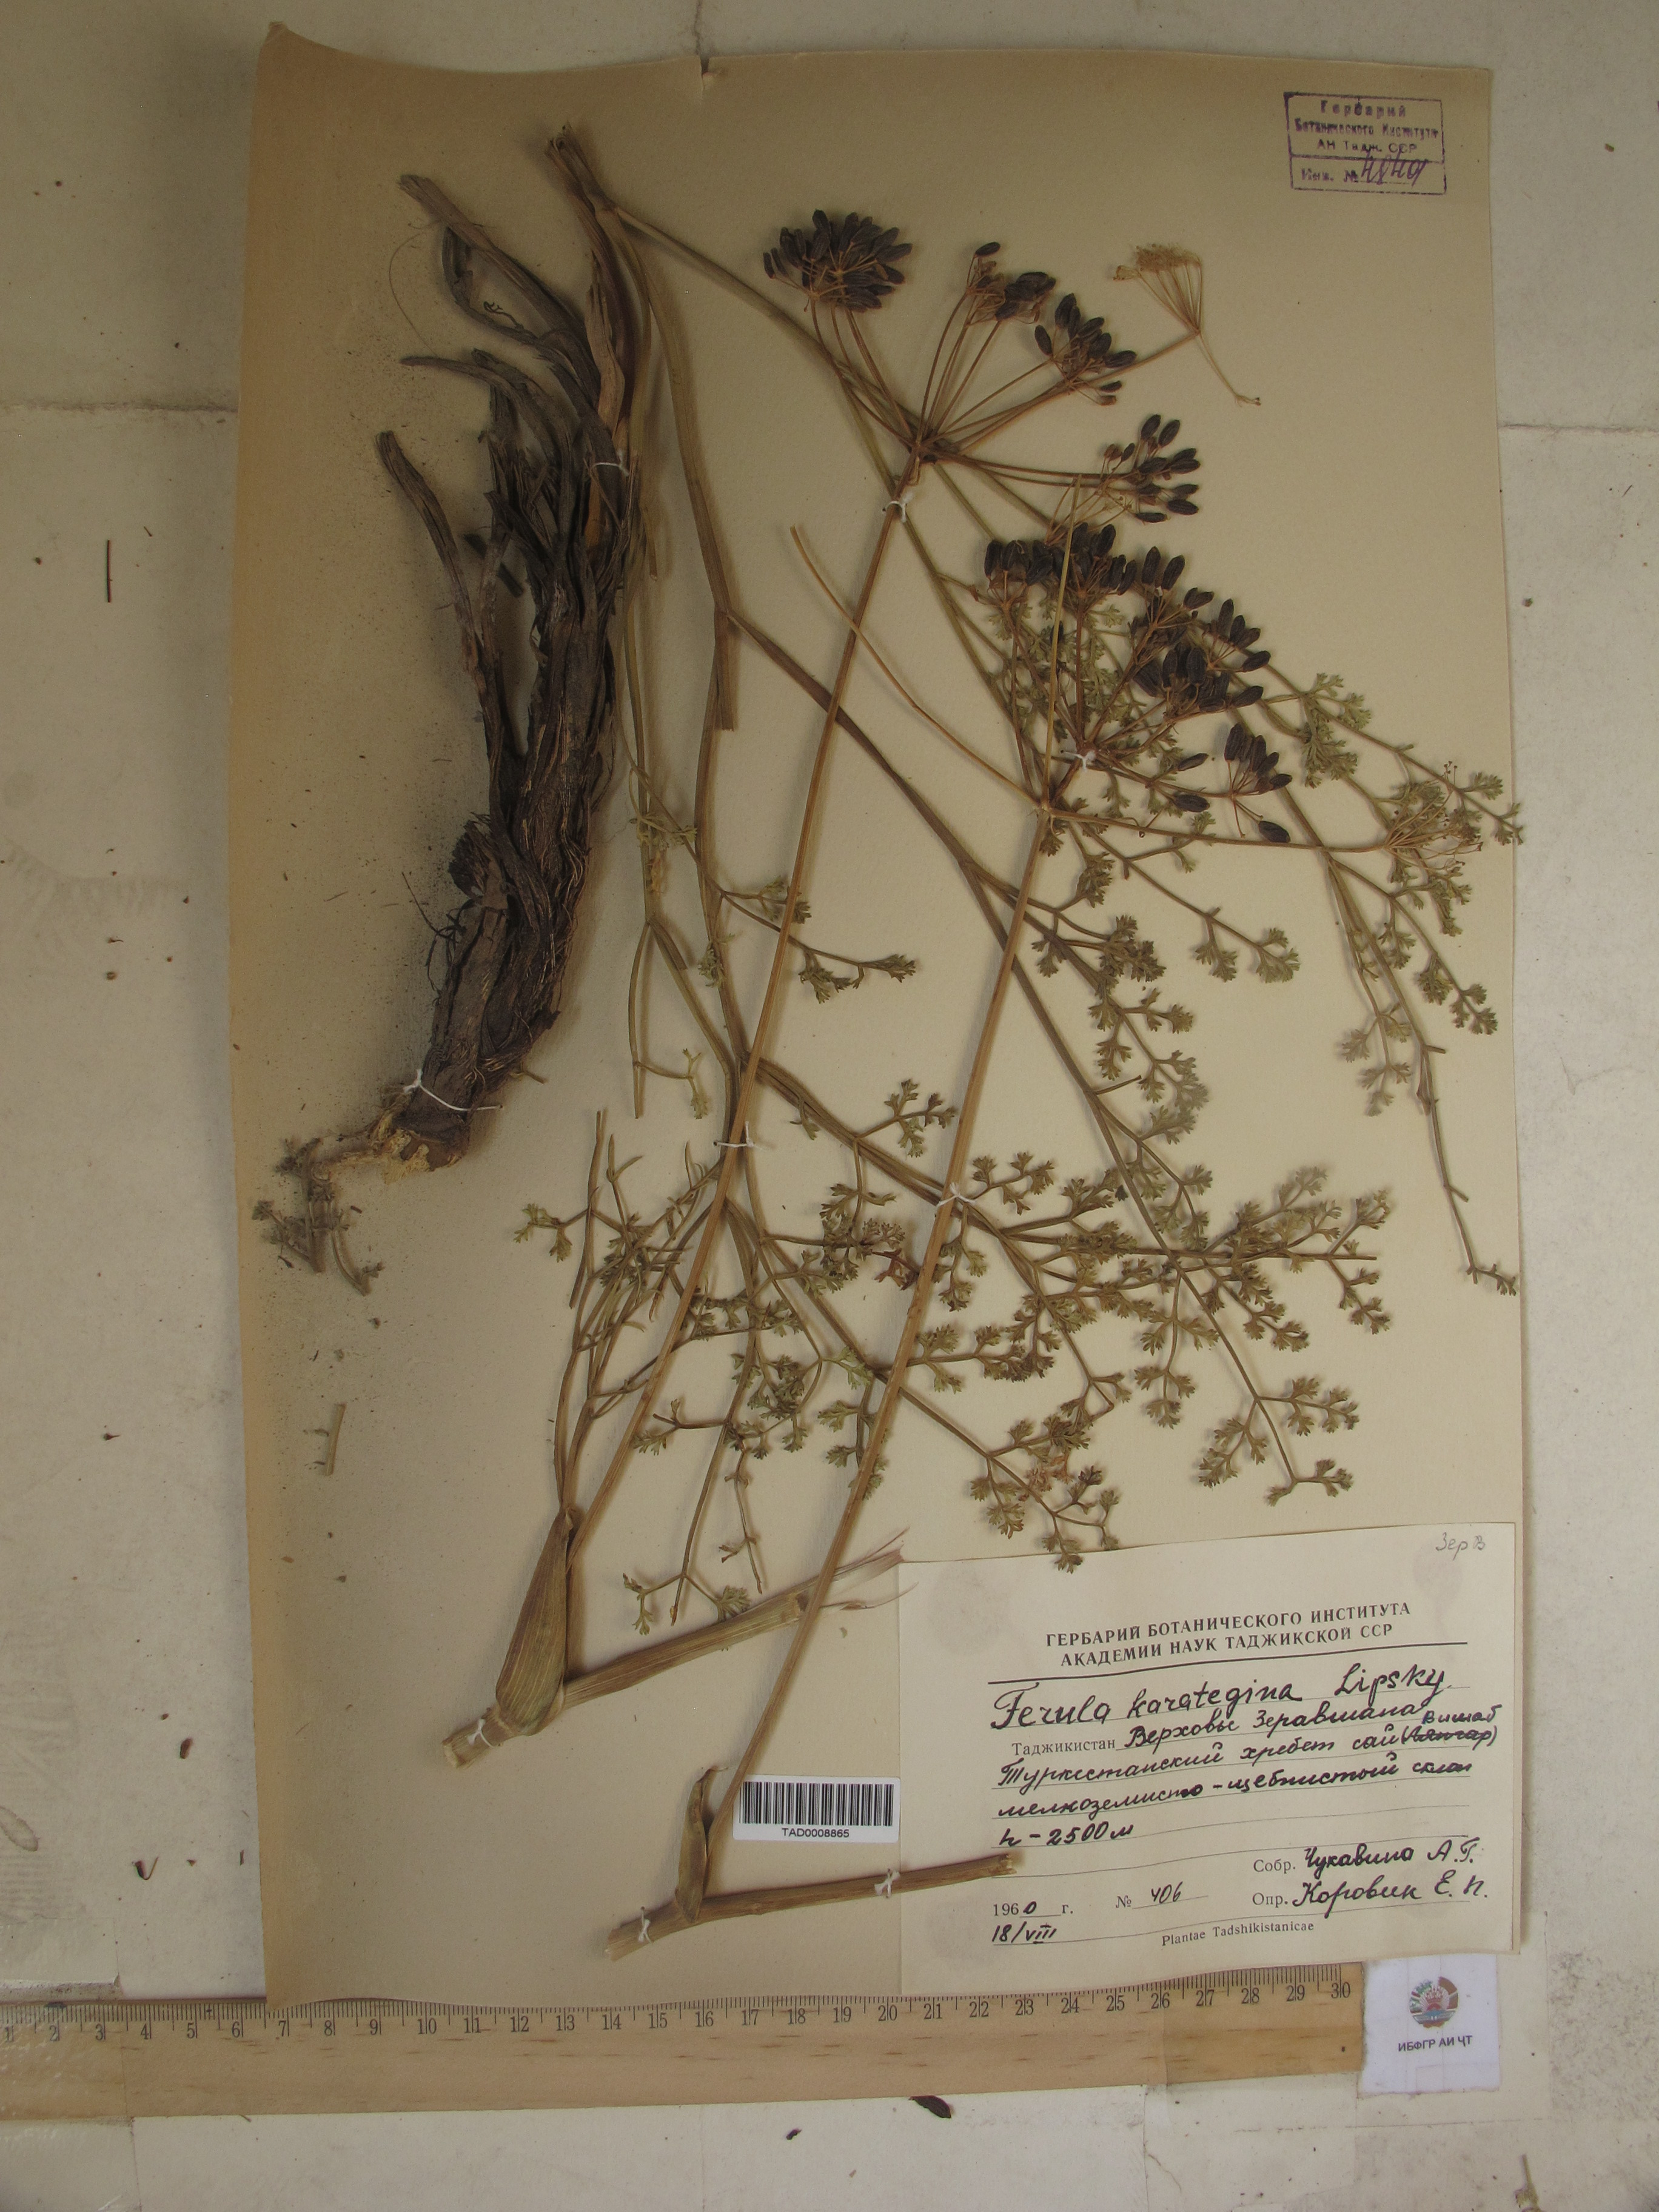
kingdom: Plantae
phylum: Tracheophyta
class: Magnoliopsida
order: Apiales
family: Apiaceae
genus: Ferula
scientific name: Ferula karategina
